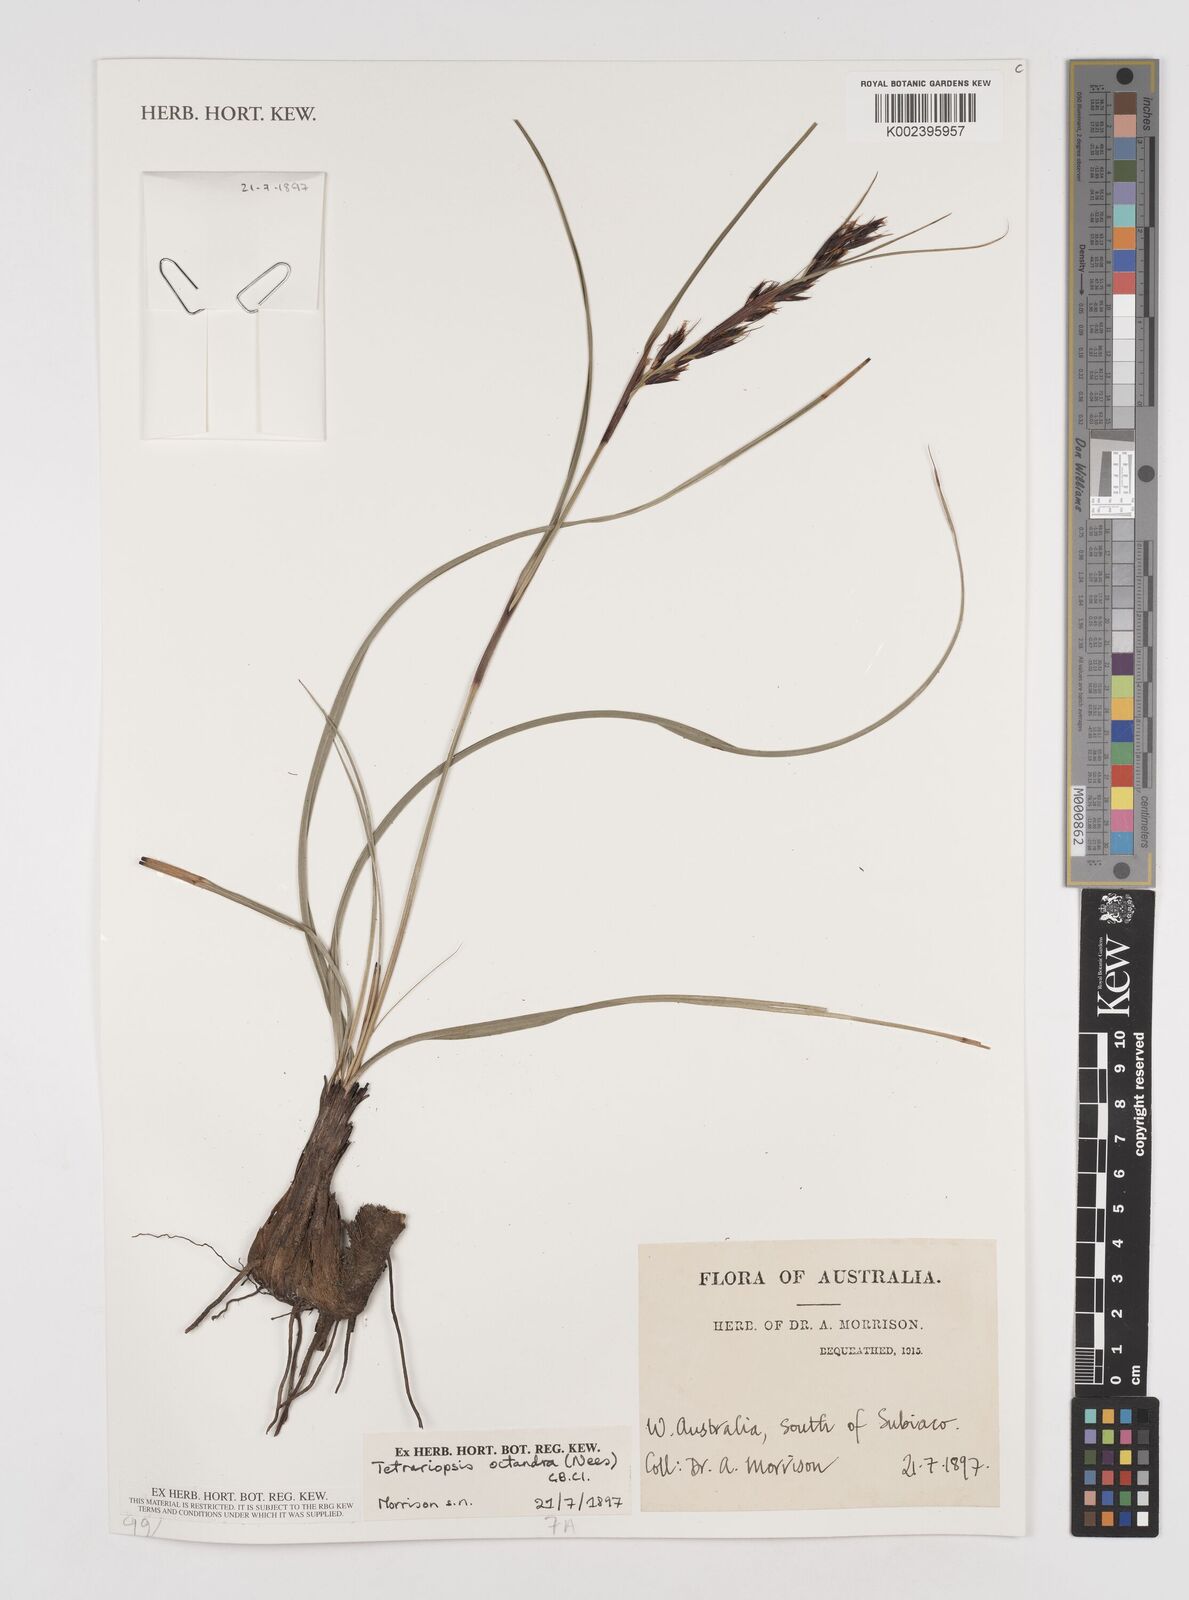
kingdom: Plantae
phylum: Tracheophyta
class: Liliopsida
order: Poales
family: Cyperaceae
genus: Tetraria
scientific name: Tetraria octandra
